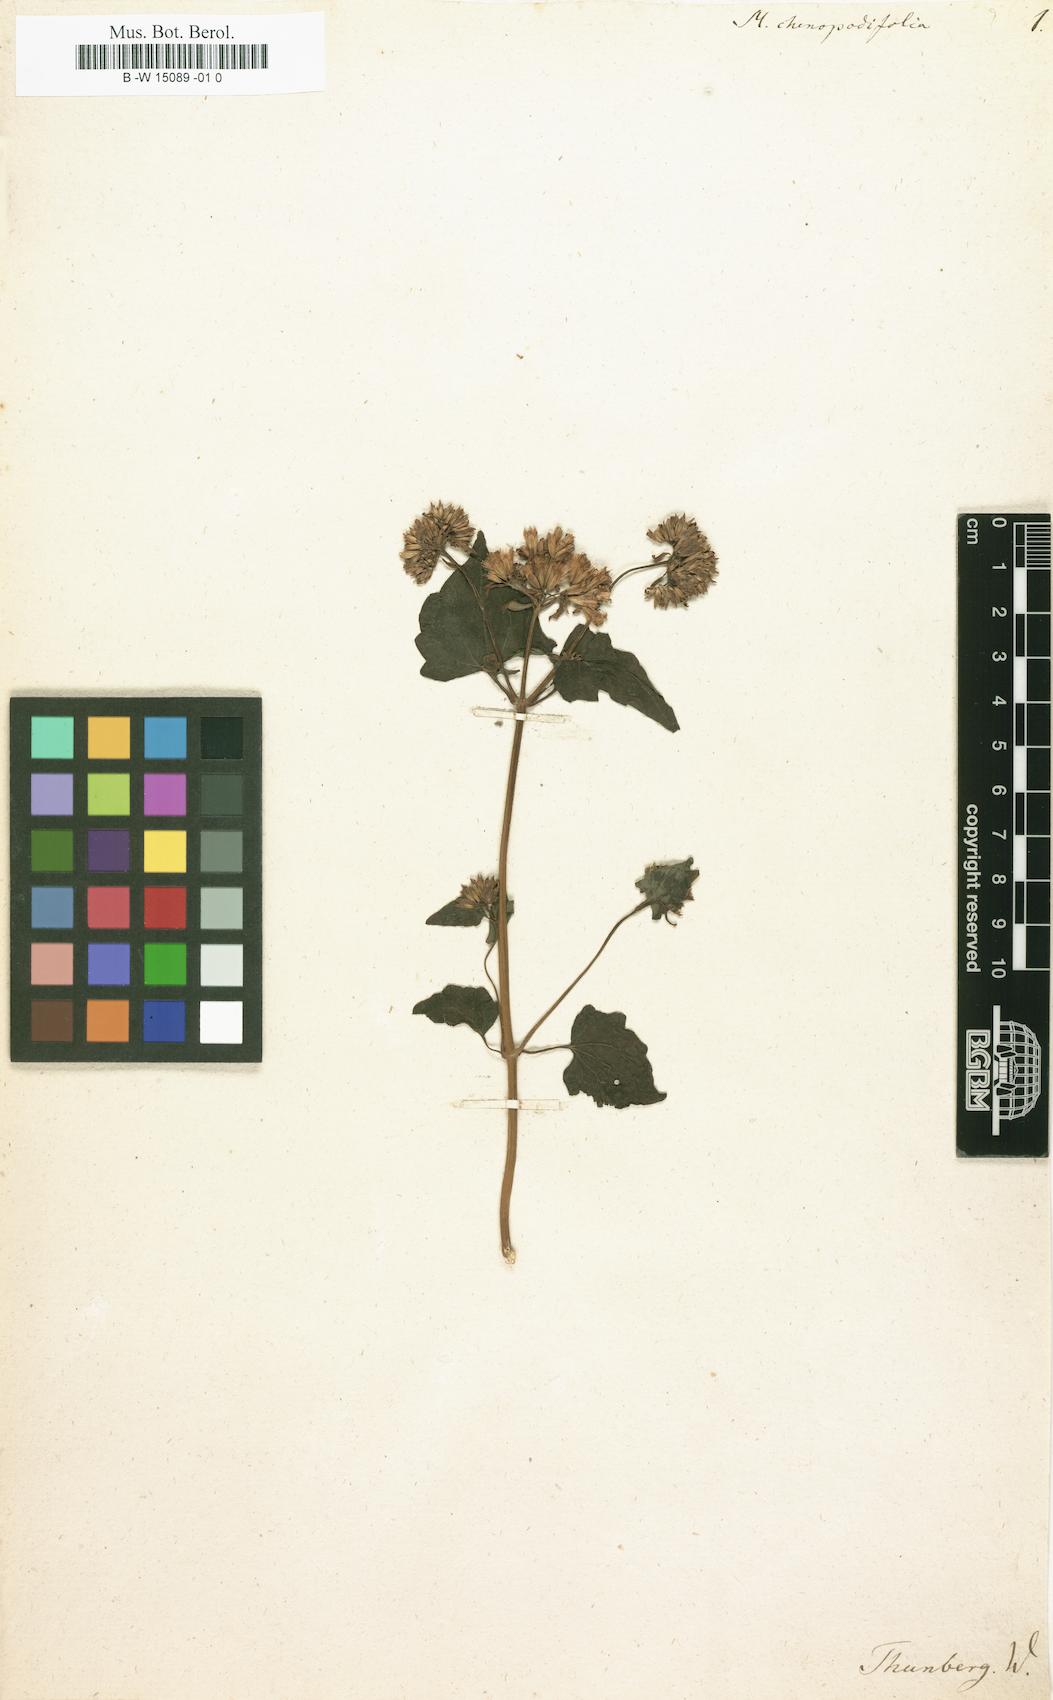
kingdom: Plantae
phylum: Tracheophyta
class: Magnoliopsida
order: Asterales
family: Asteraceae
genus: Mikania
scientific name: Mikania chenopodifolia
